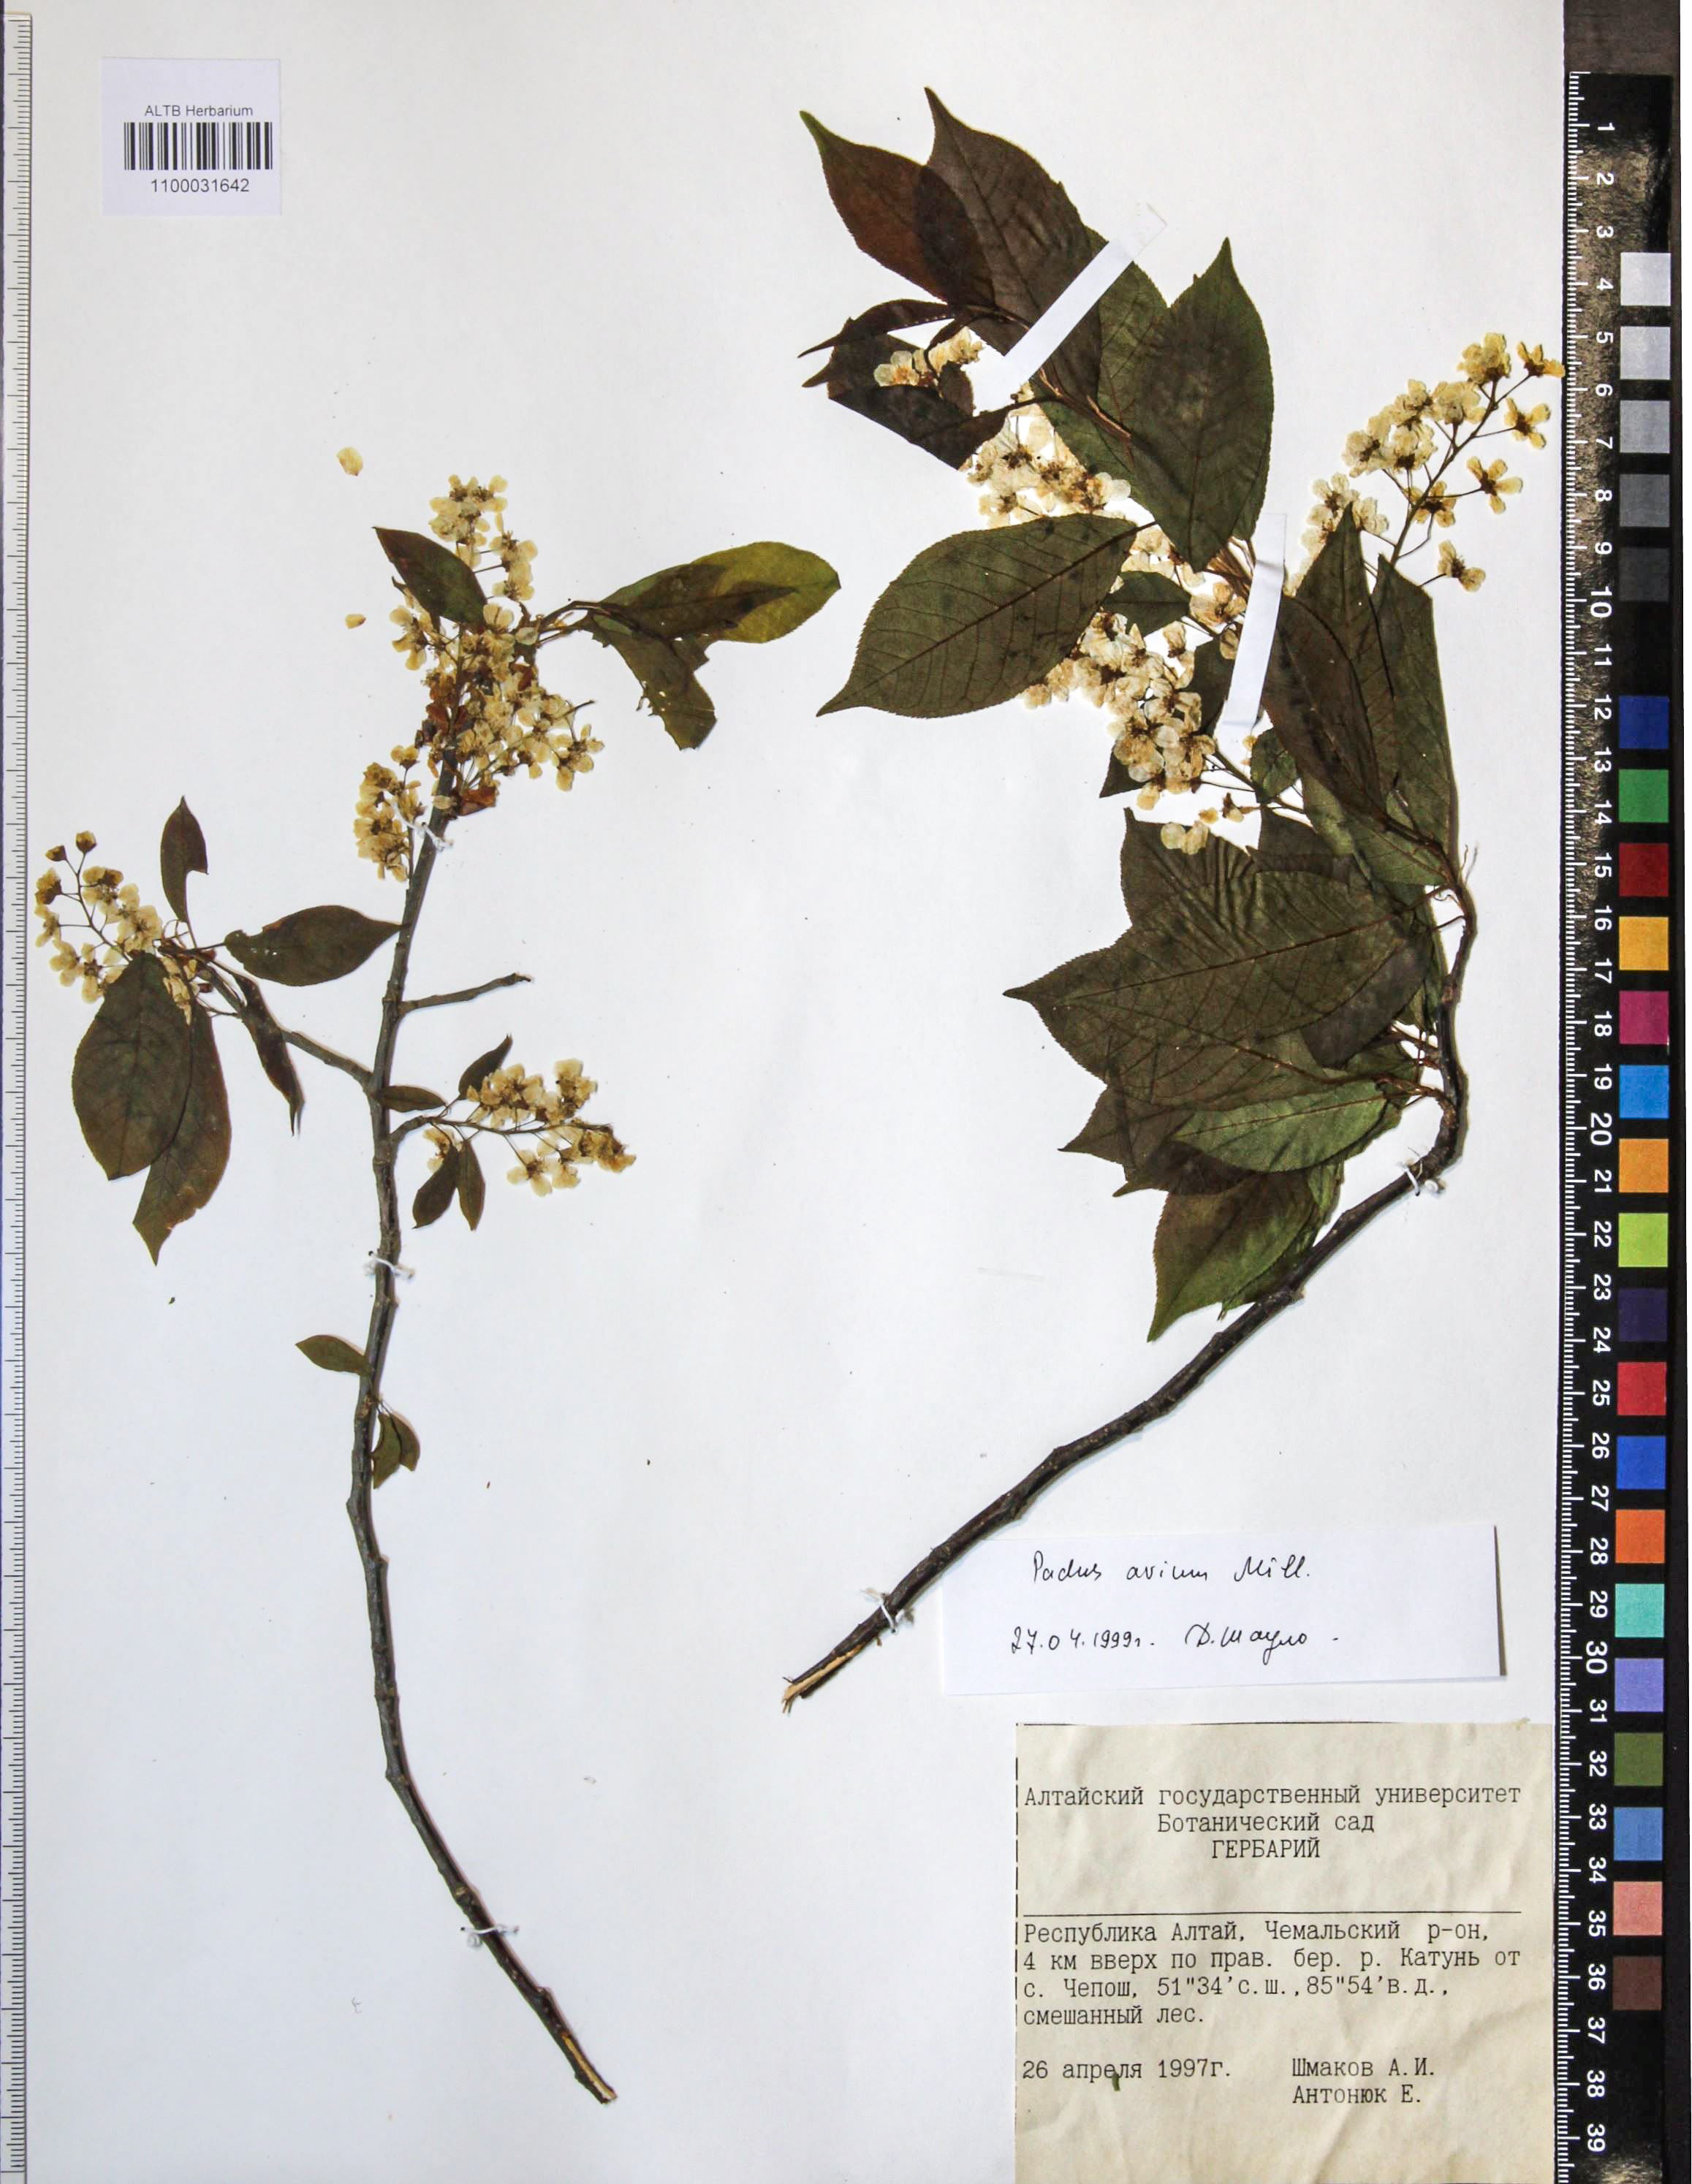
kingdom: Plantae
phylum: Tracheophyta
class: Magnoliopsida
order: Rosales
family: Rosaceae
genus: Prunus
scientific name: Prunus padus
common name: Bird cherry
